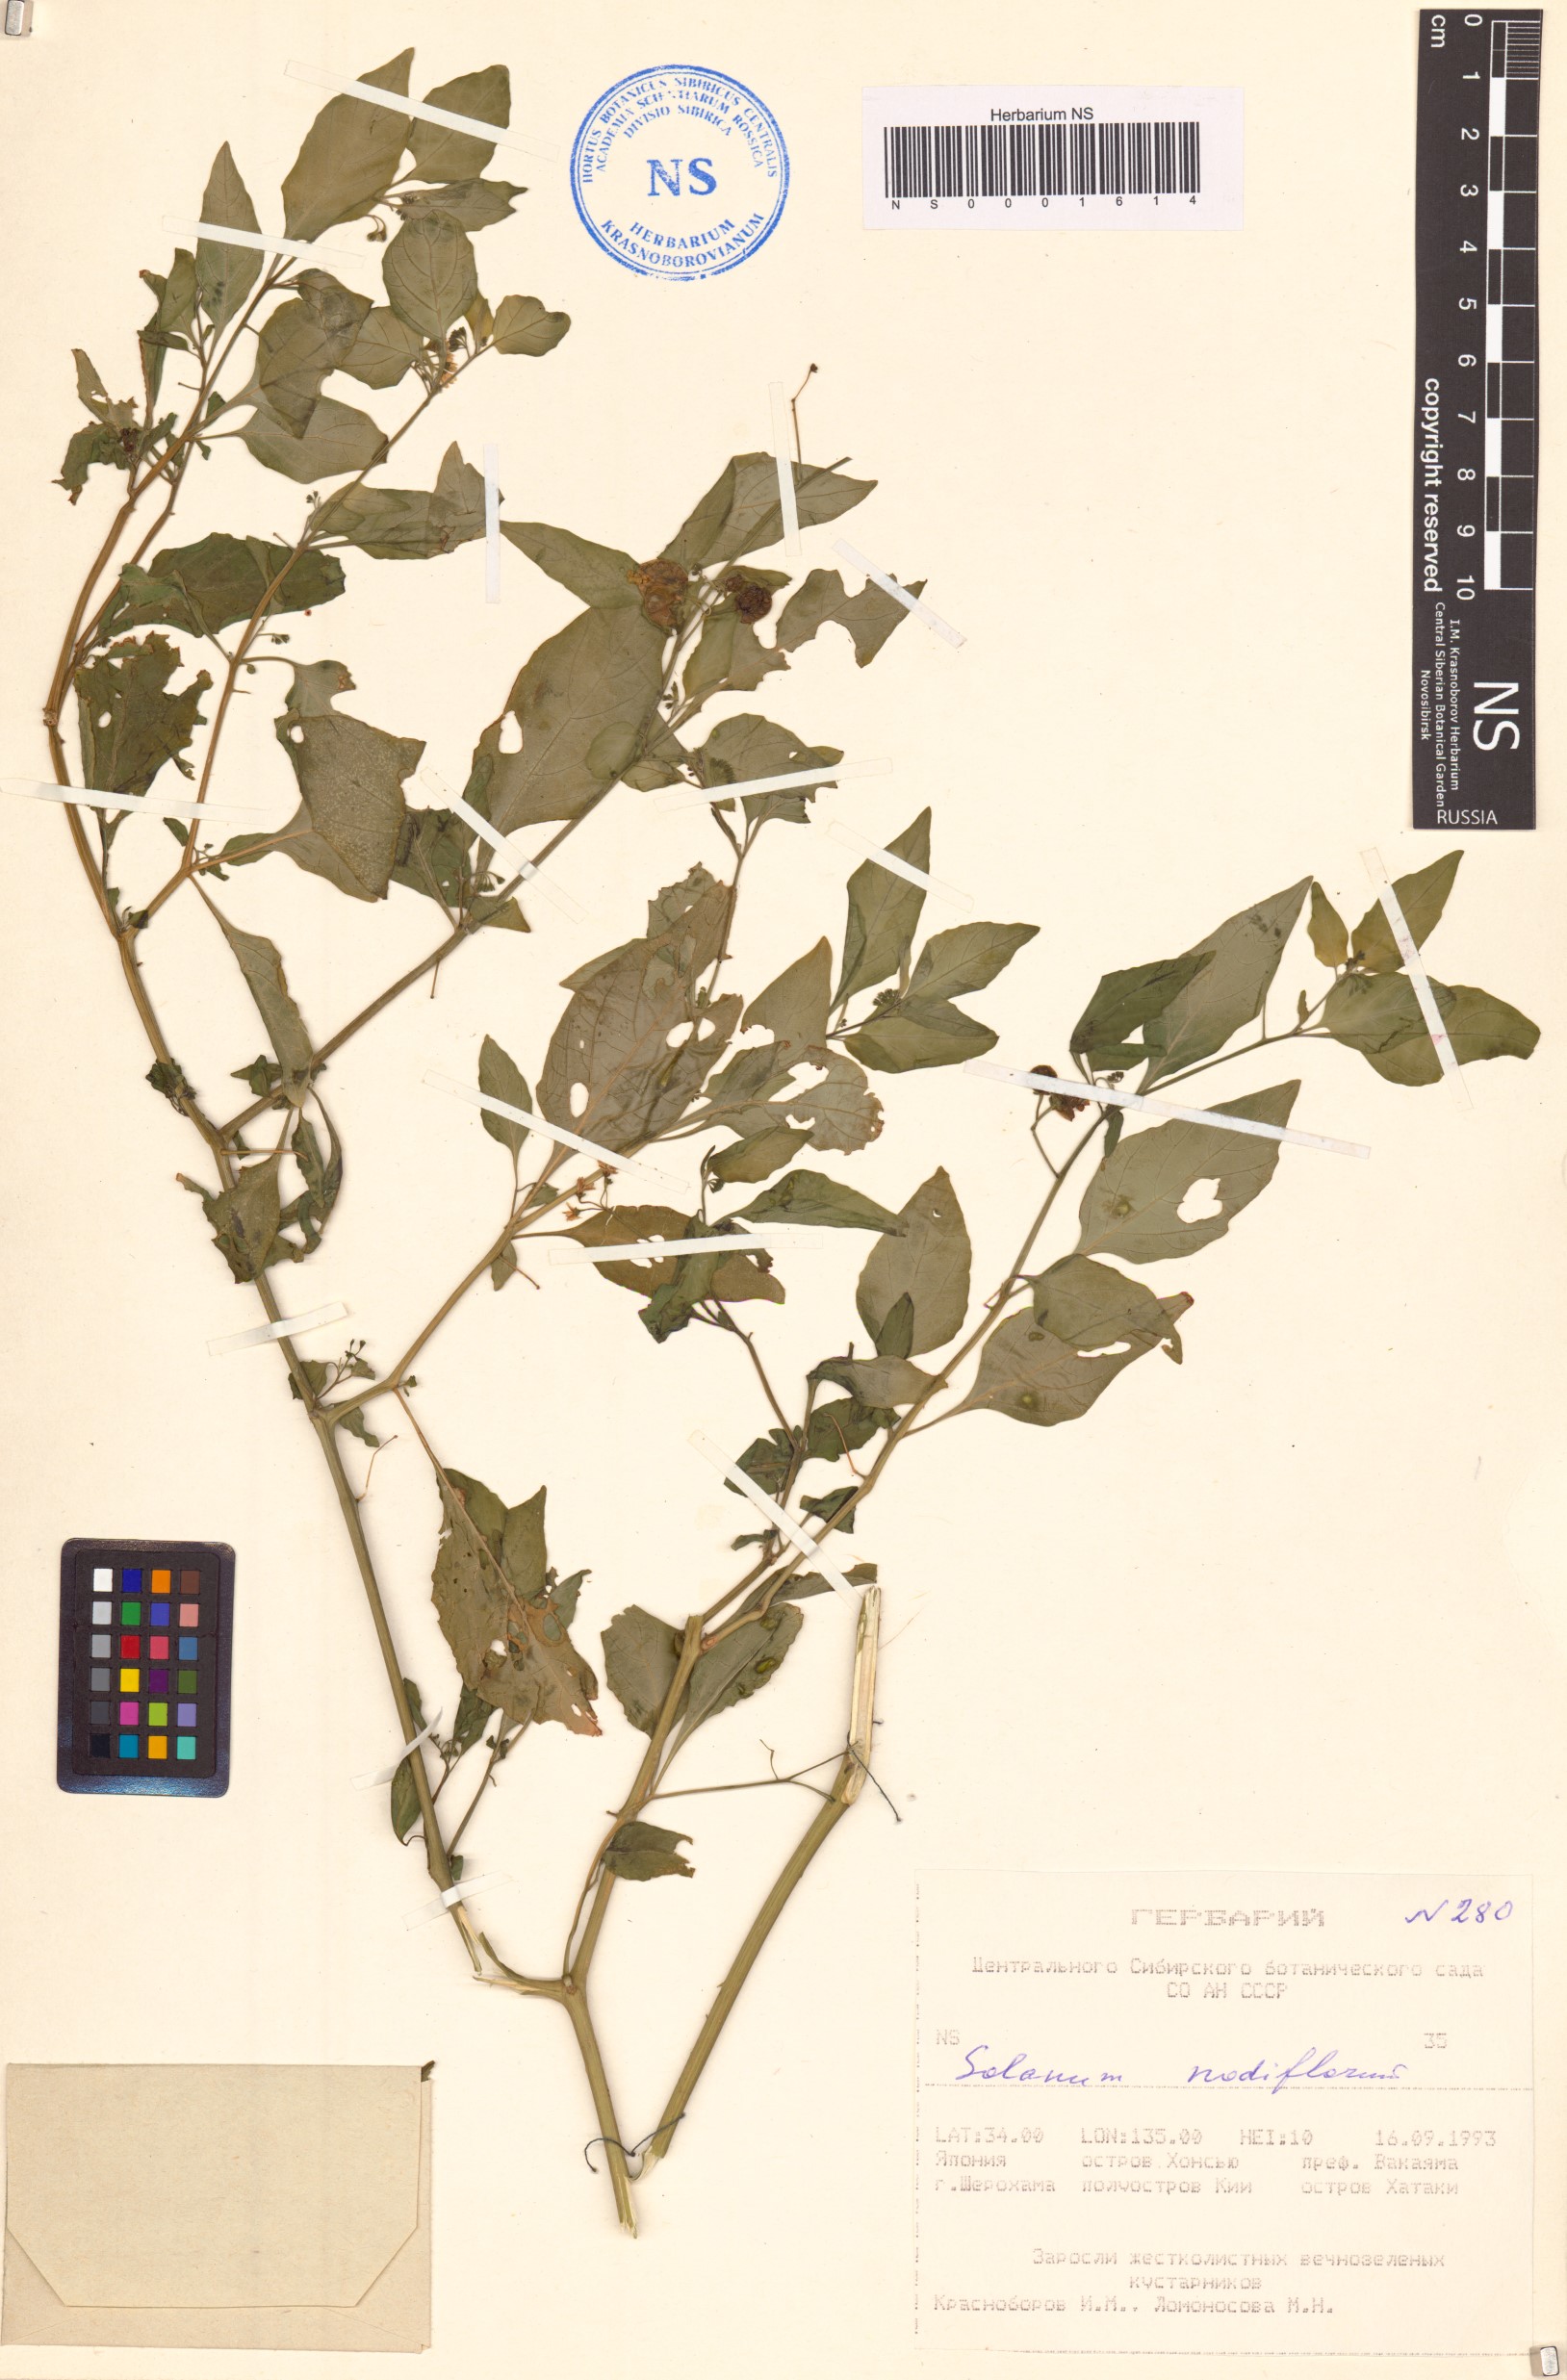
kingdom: Plantae
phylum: Tracheophyta
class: Magnoliopsida
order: Solanales
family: Solanaceae
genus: Solanum
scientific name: Solanum americanum
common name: American black nightshade
